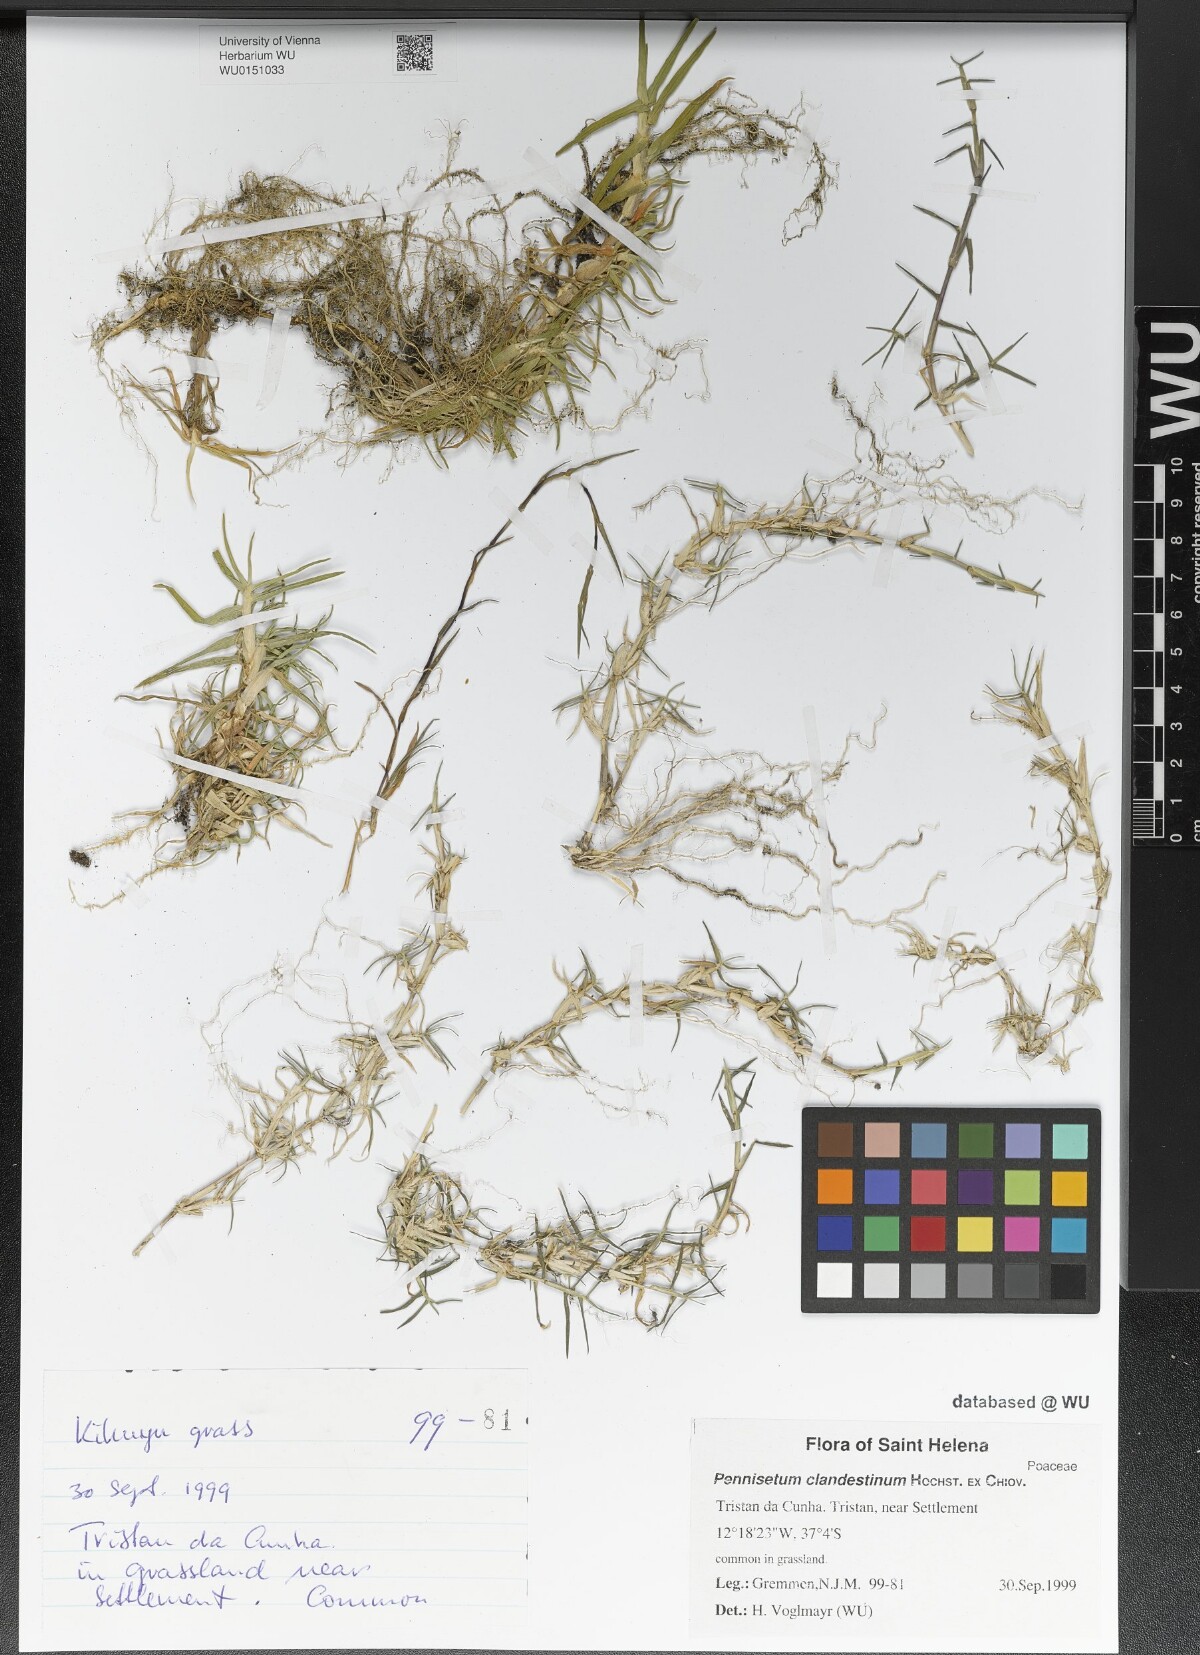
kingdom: Plantae
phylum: Tracheophyta
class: Liliopsida
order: Poales
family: Poaceae
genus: Cenchrus
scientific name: Cenchrus clandestinus
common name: Kikuyugrass
